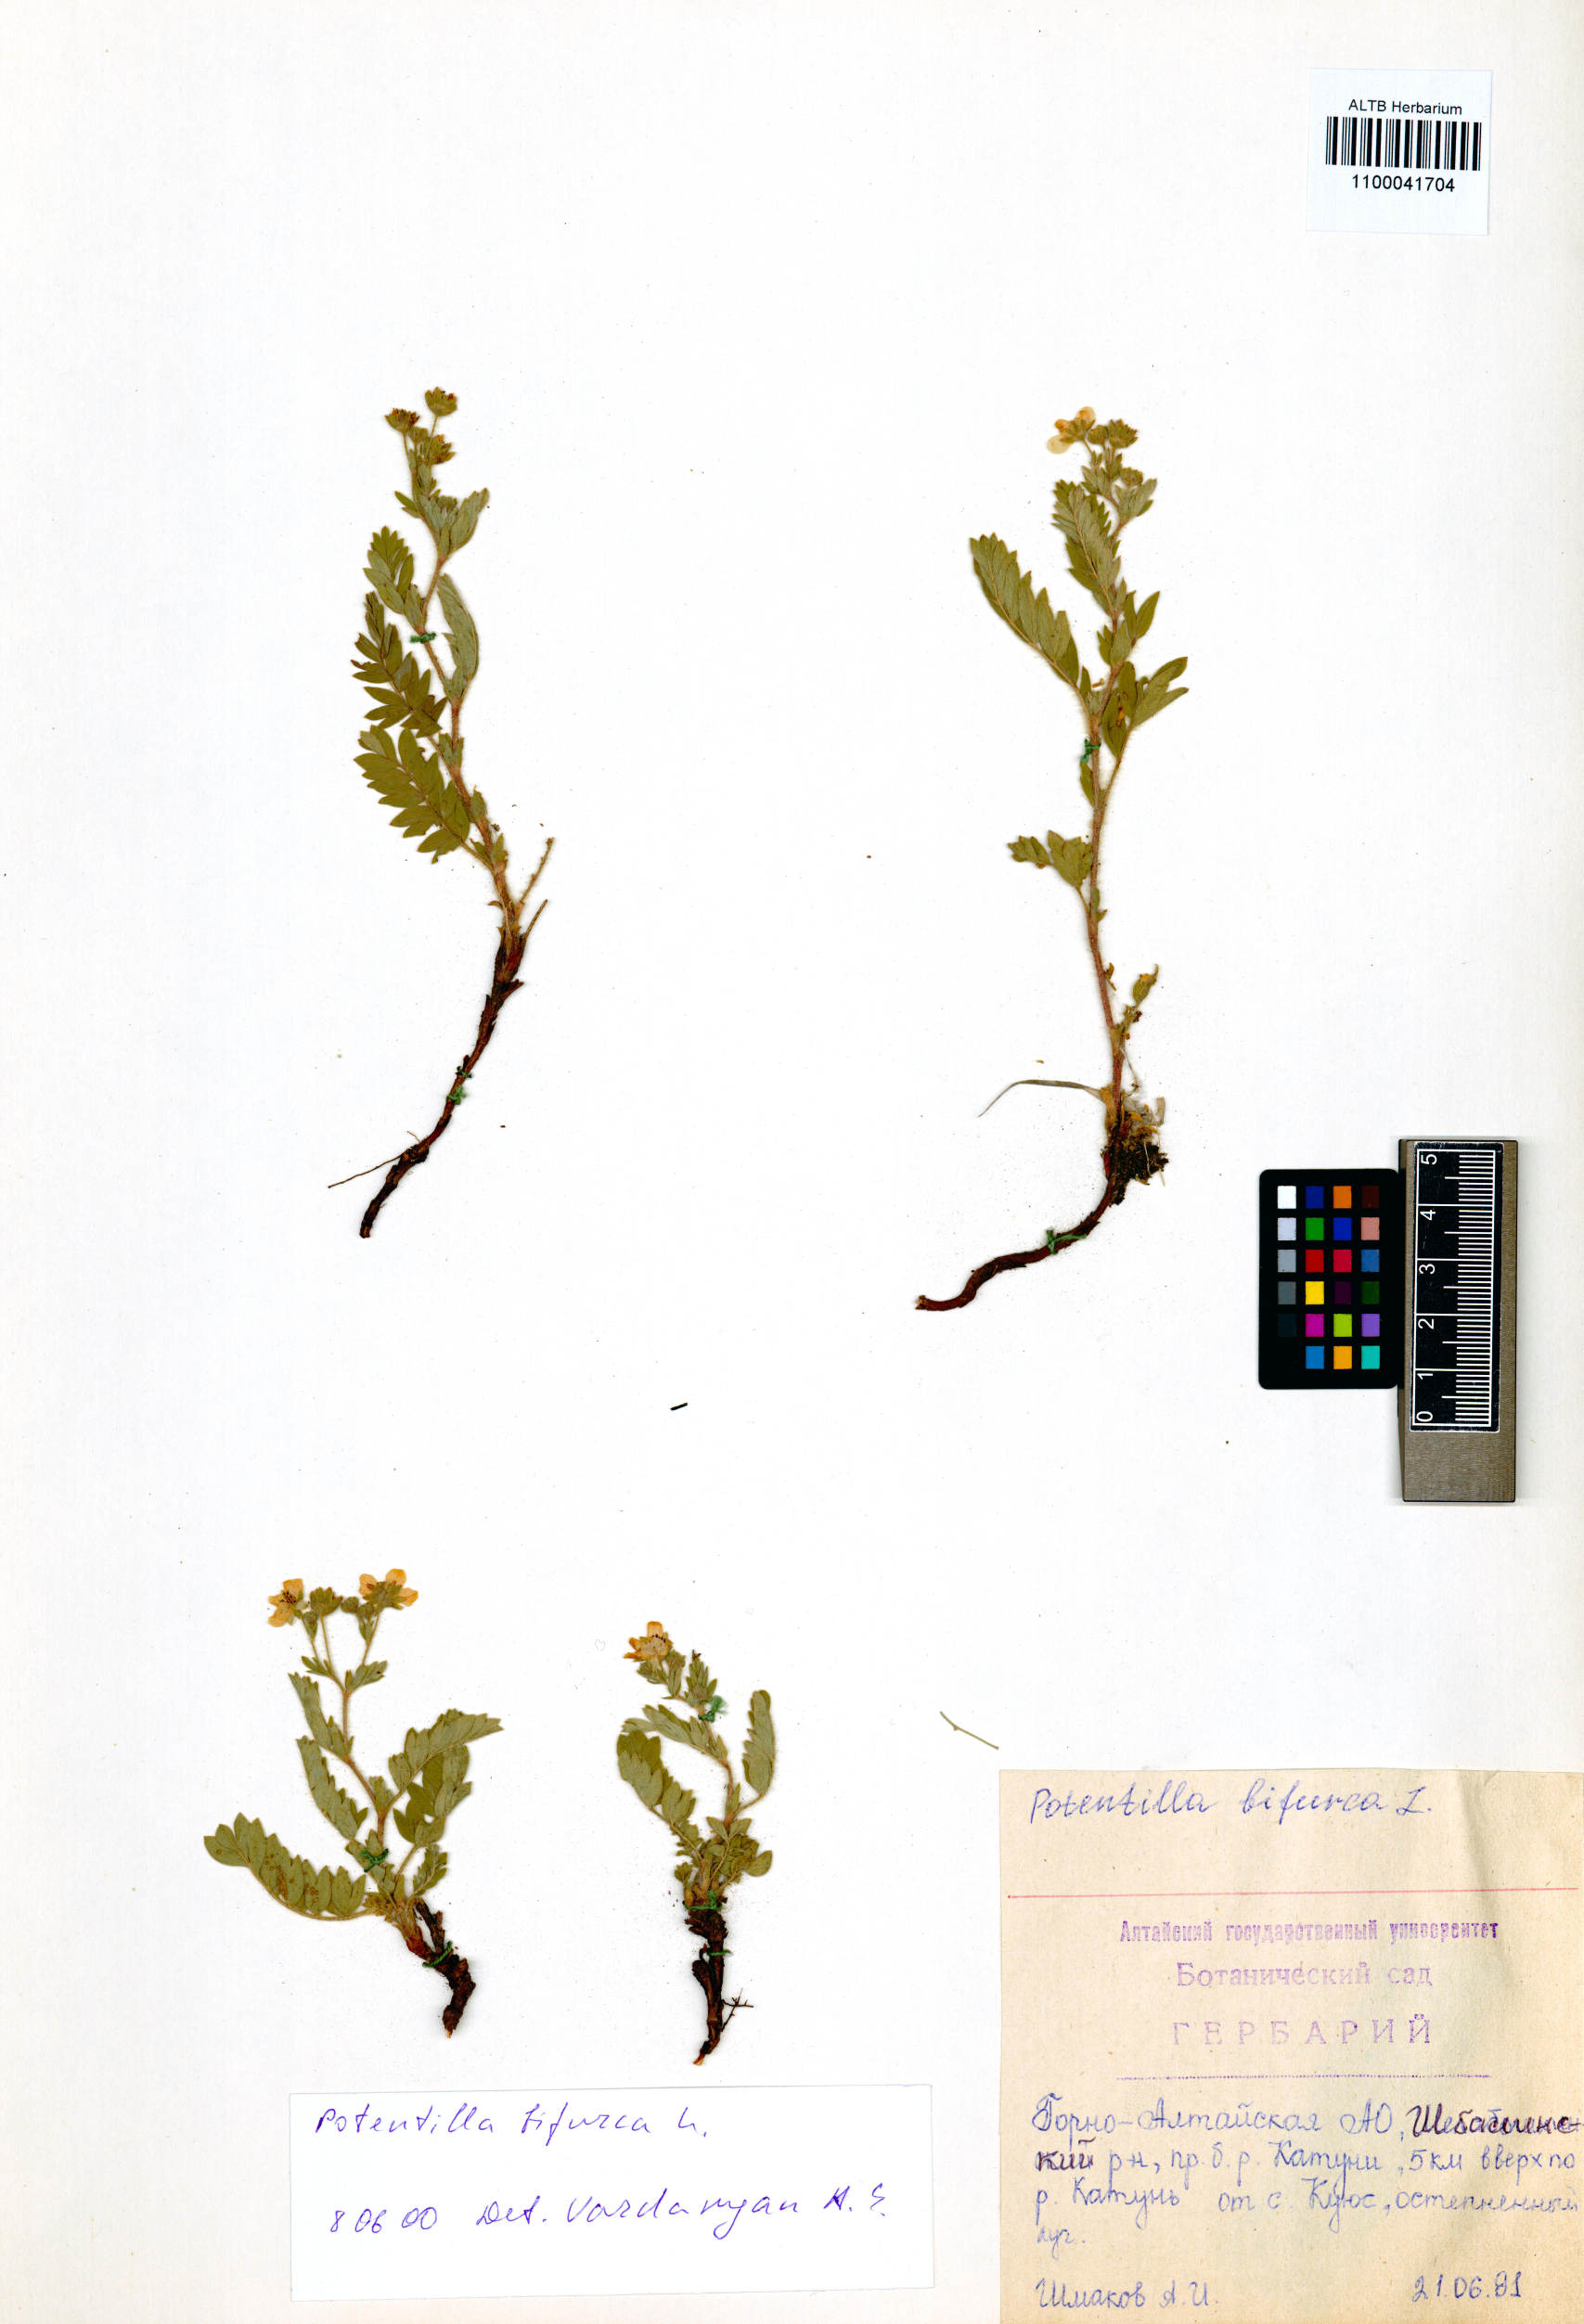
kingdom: Plantae
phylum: Tracheophyta
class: Magnoliopsida
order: Rosales
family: Rosaceae
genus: Sibbaldianthe
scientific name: Sibbaldianthe bifurca
